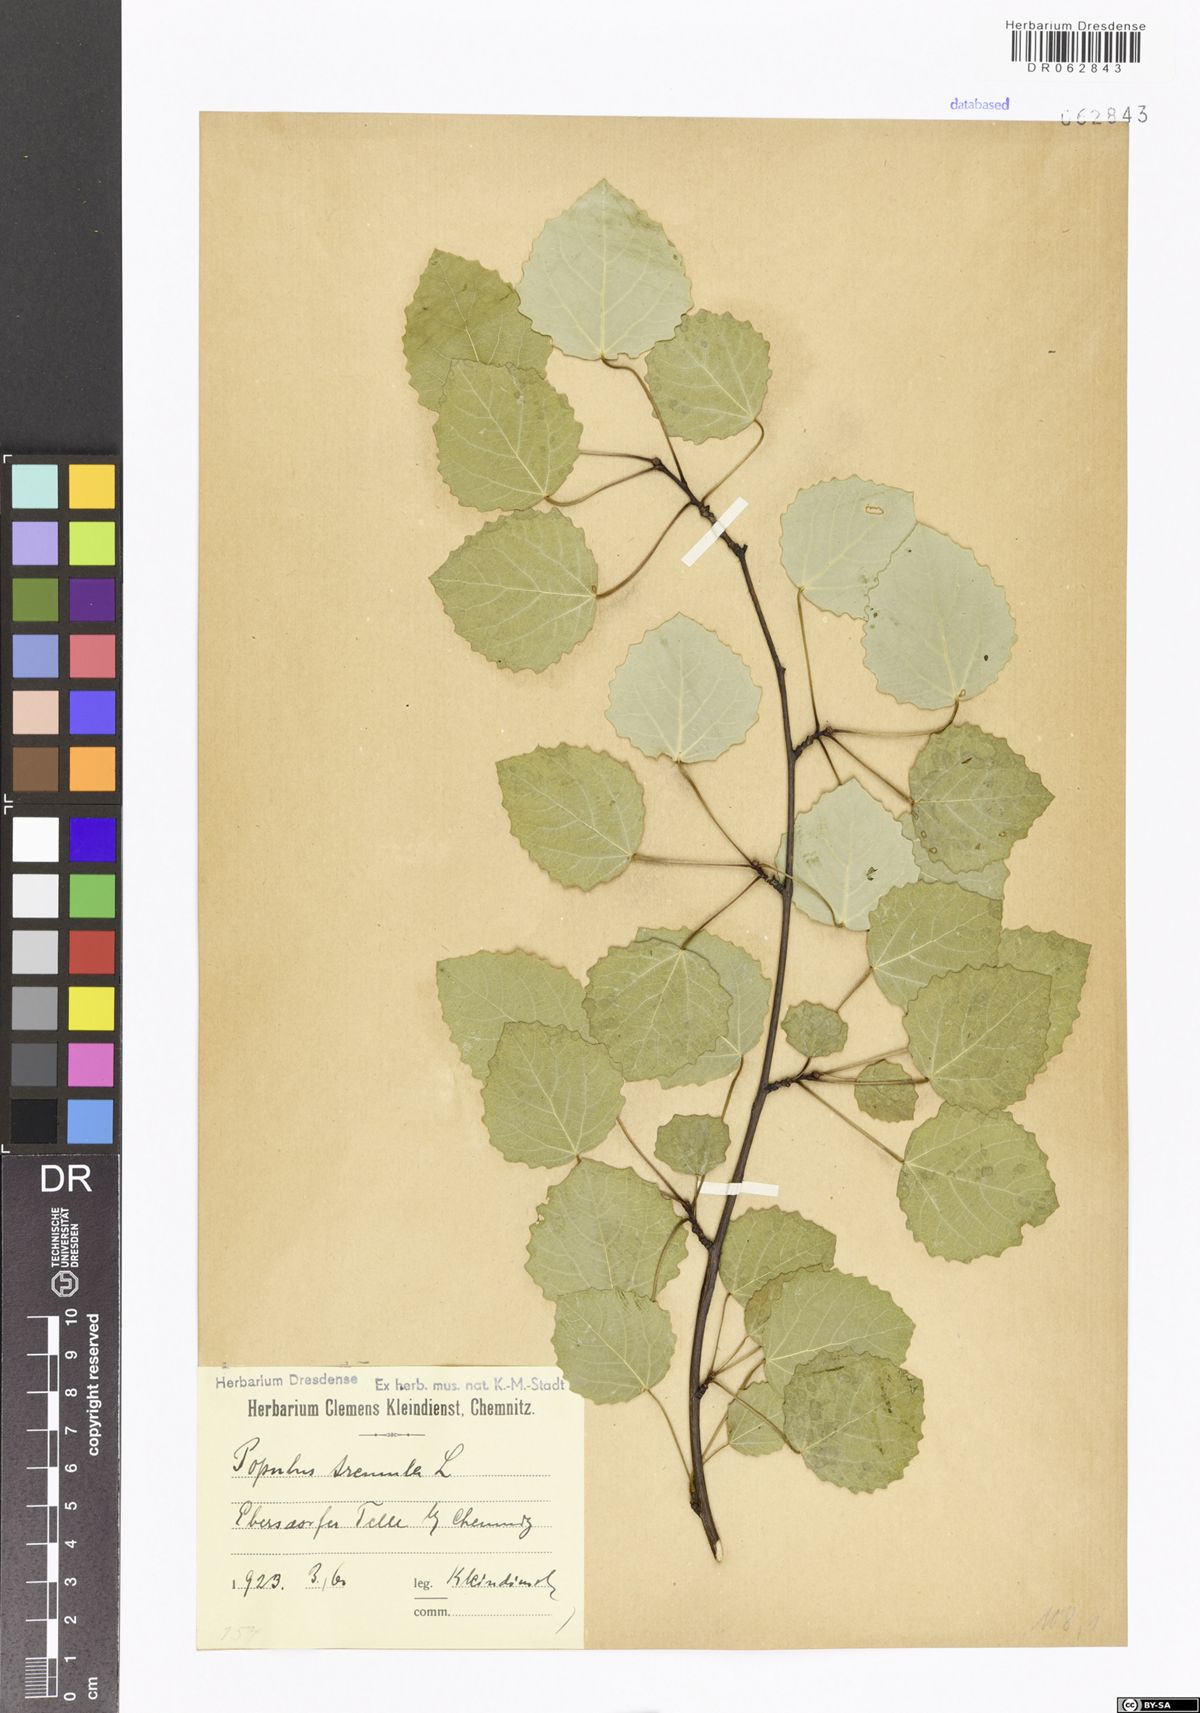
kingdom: Plantae
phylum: Tracheophyta
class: Magnoliopsida
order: Malpighiales
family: Salicaceae
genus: Populus
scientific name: Populus tremula
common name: European aspen
